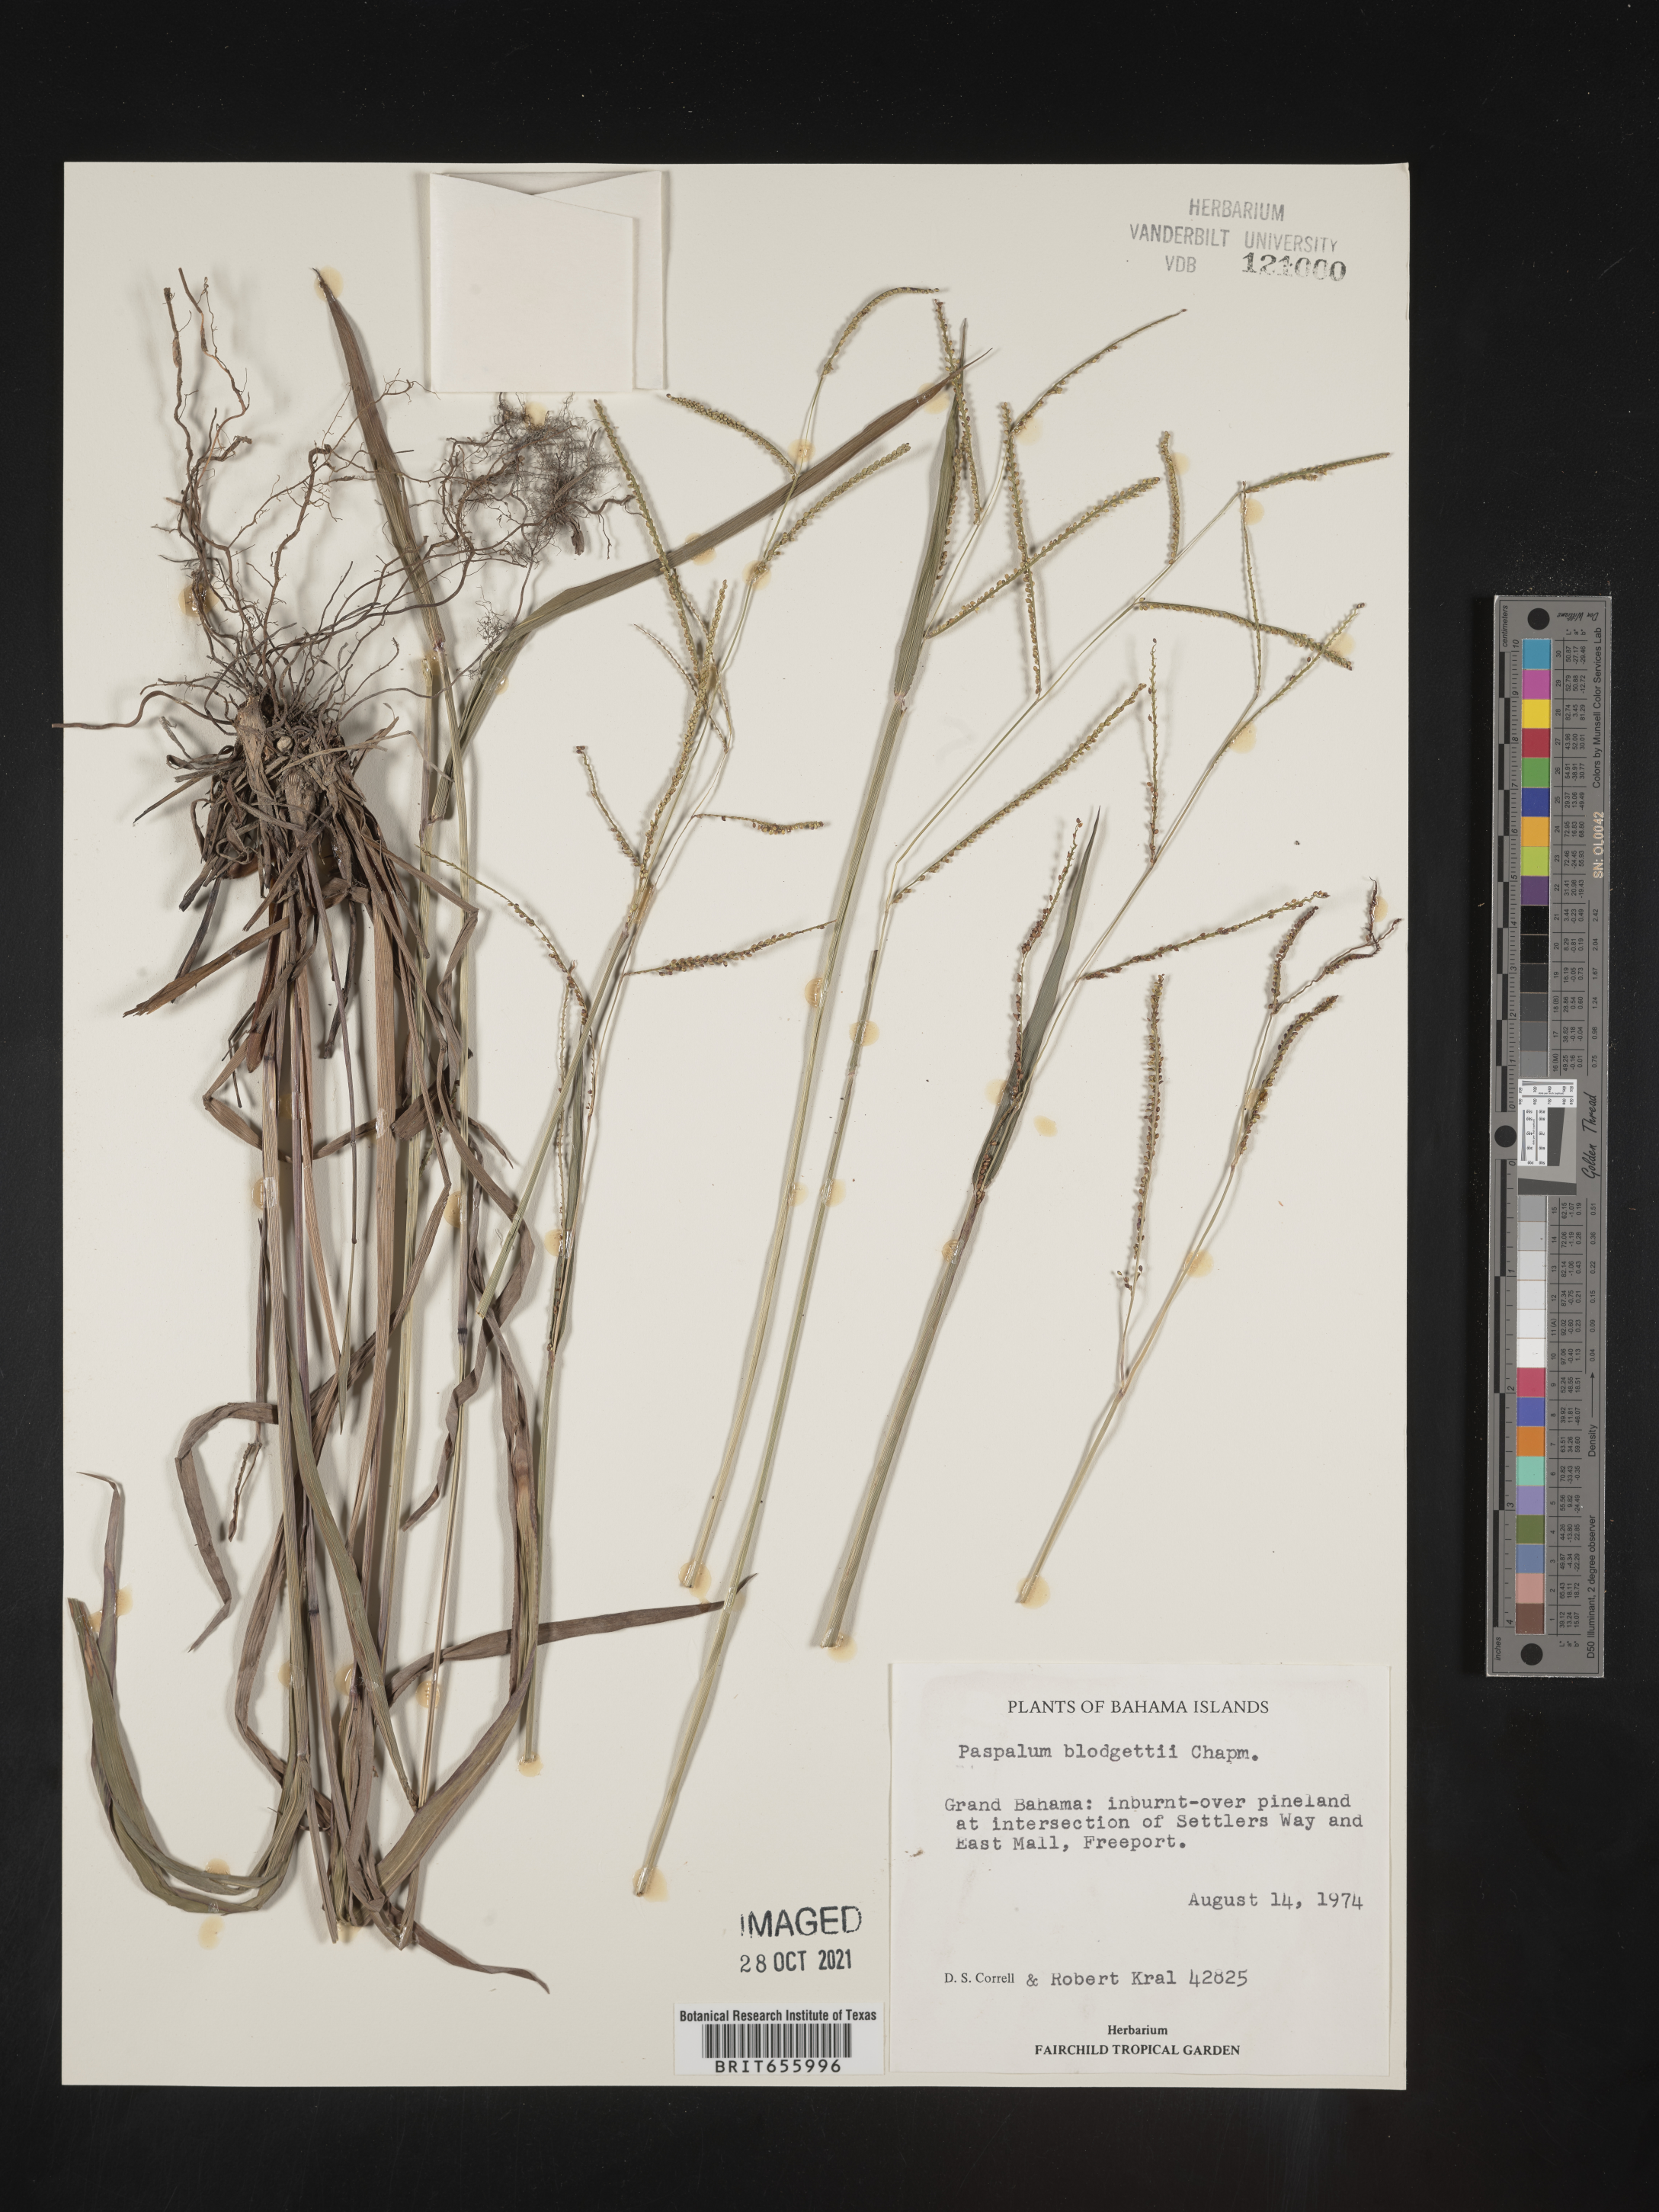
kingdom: Plantae
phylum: Tracheophyta
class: Liliopsida
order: Poales
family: Poaceae
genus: Paspalum
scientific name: Paspalum
